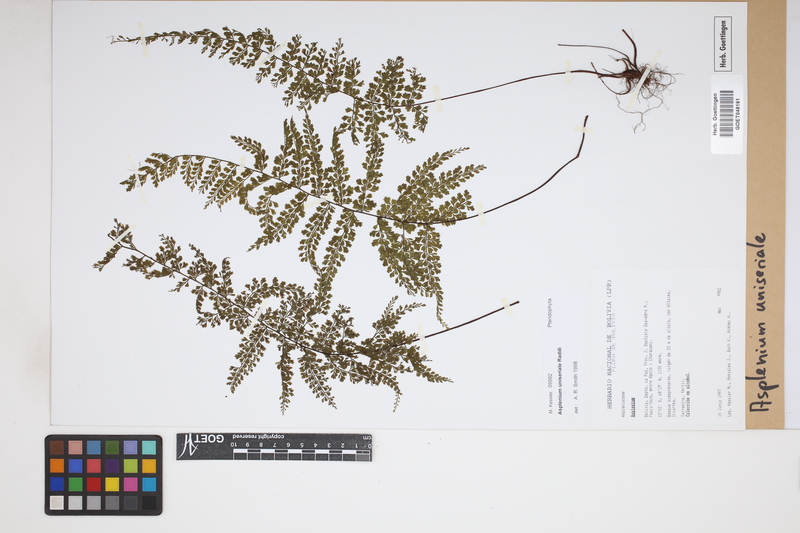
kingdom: Plantae
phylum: Tracheophyta
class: Polypodiopsida
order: Polypodiales
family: Aspleniaceae
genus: Asplenium
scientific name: Asplenium uniseriale
